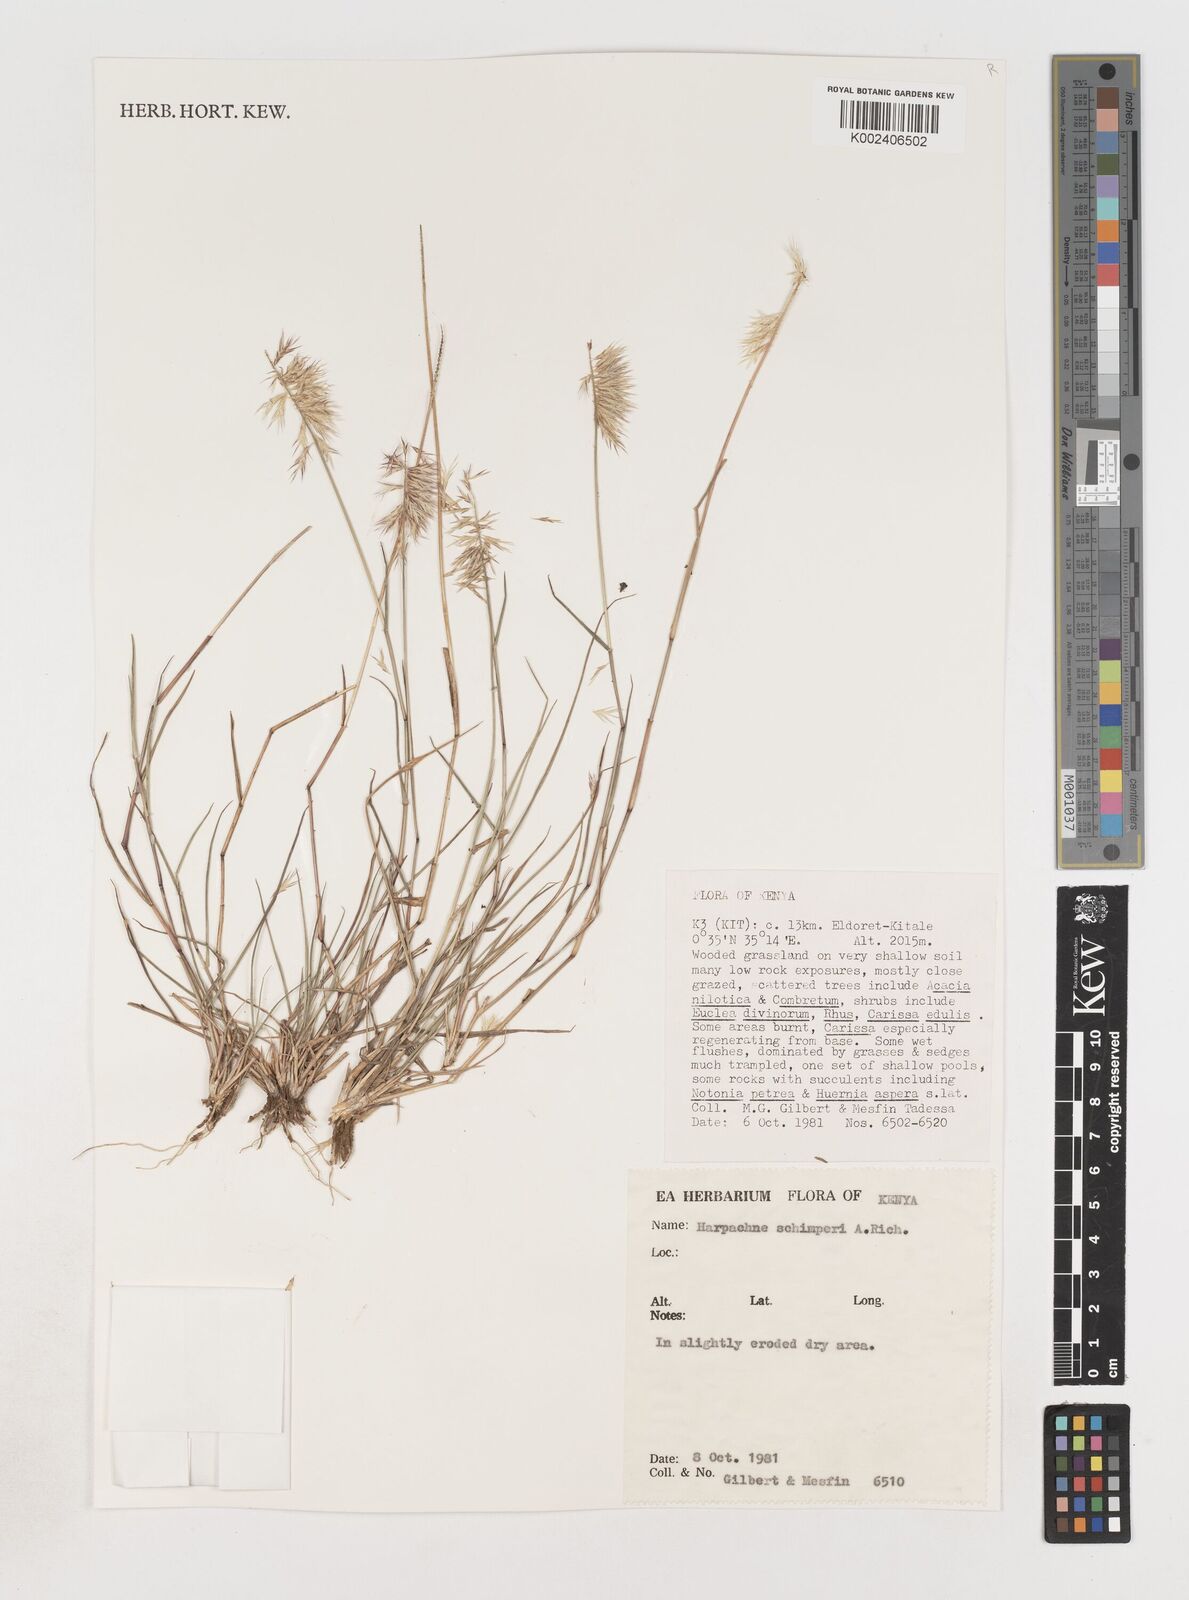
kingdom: Plantae
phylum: Tracheophyta
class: Liliopsida
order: Poales
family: Poaceae
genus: Harpachne
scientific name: Harpachne schimperi
